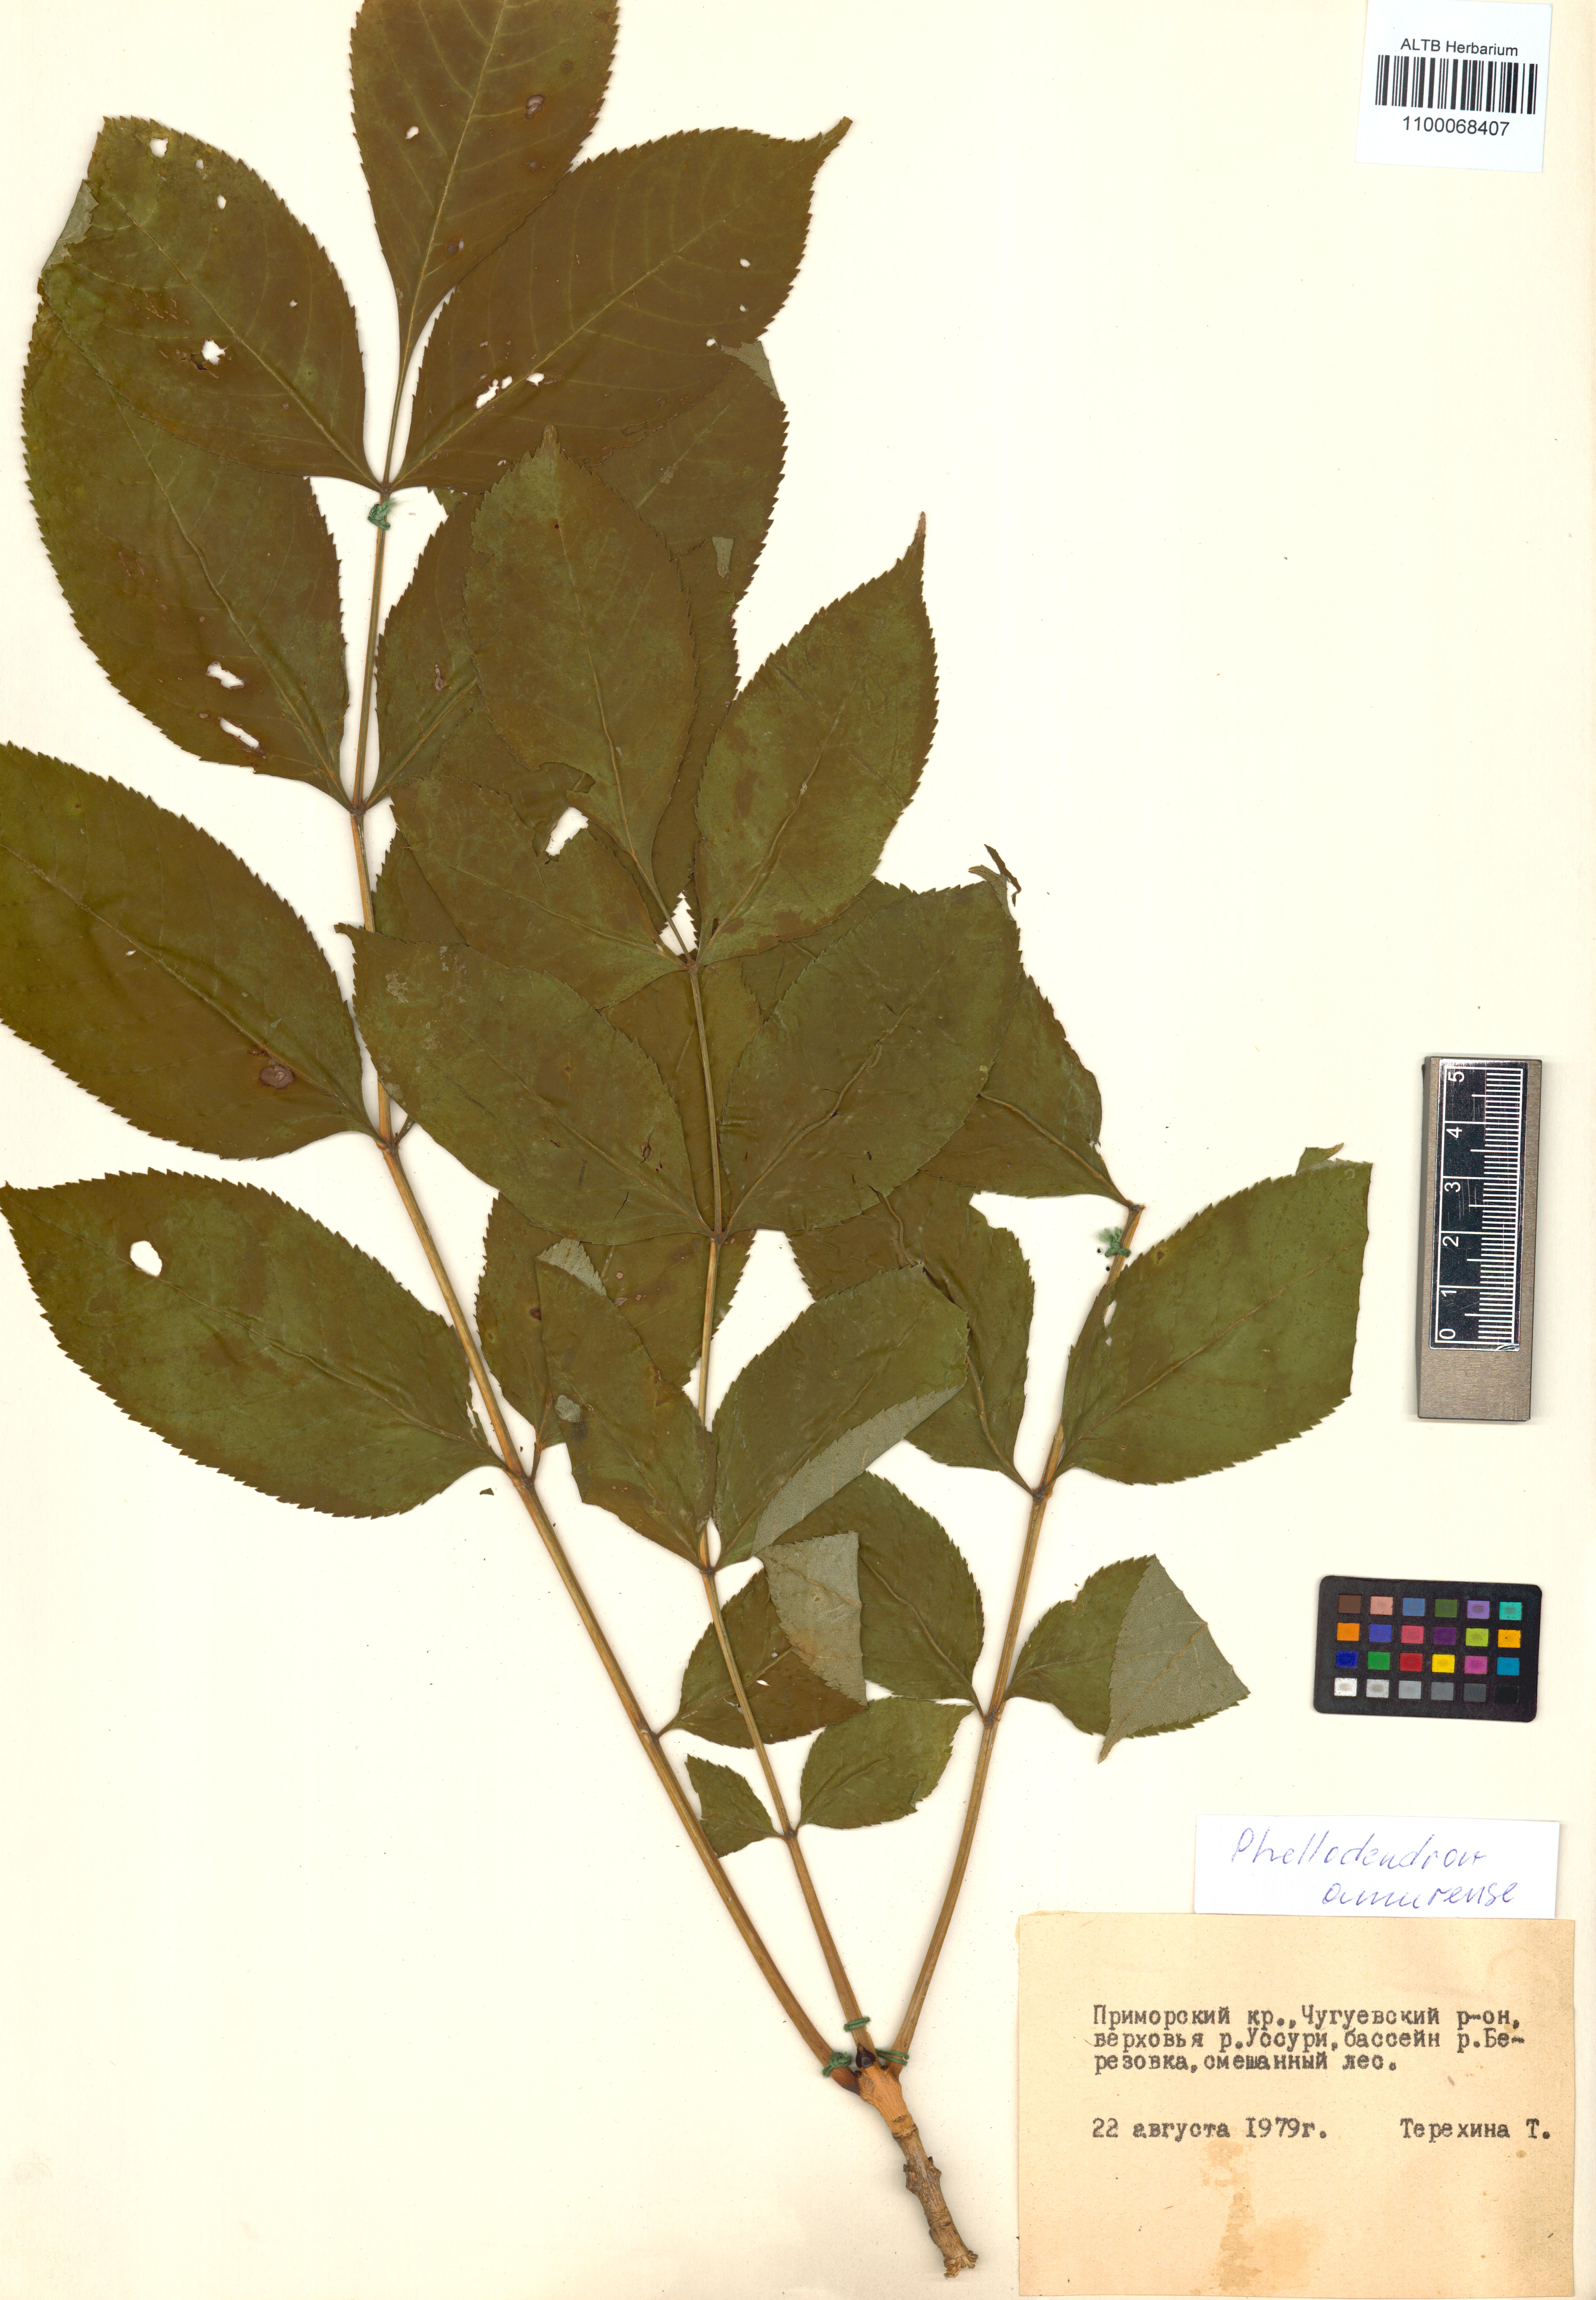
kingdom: Plantae
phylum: Tracheophyta
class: Magnoliopsida
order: Sapindales
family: Rutaceae
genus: Phellodendron
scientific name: Phellodendron amurense
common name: Amur corktree
